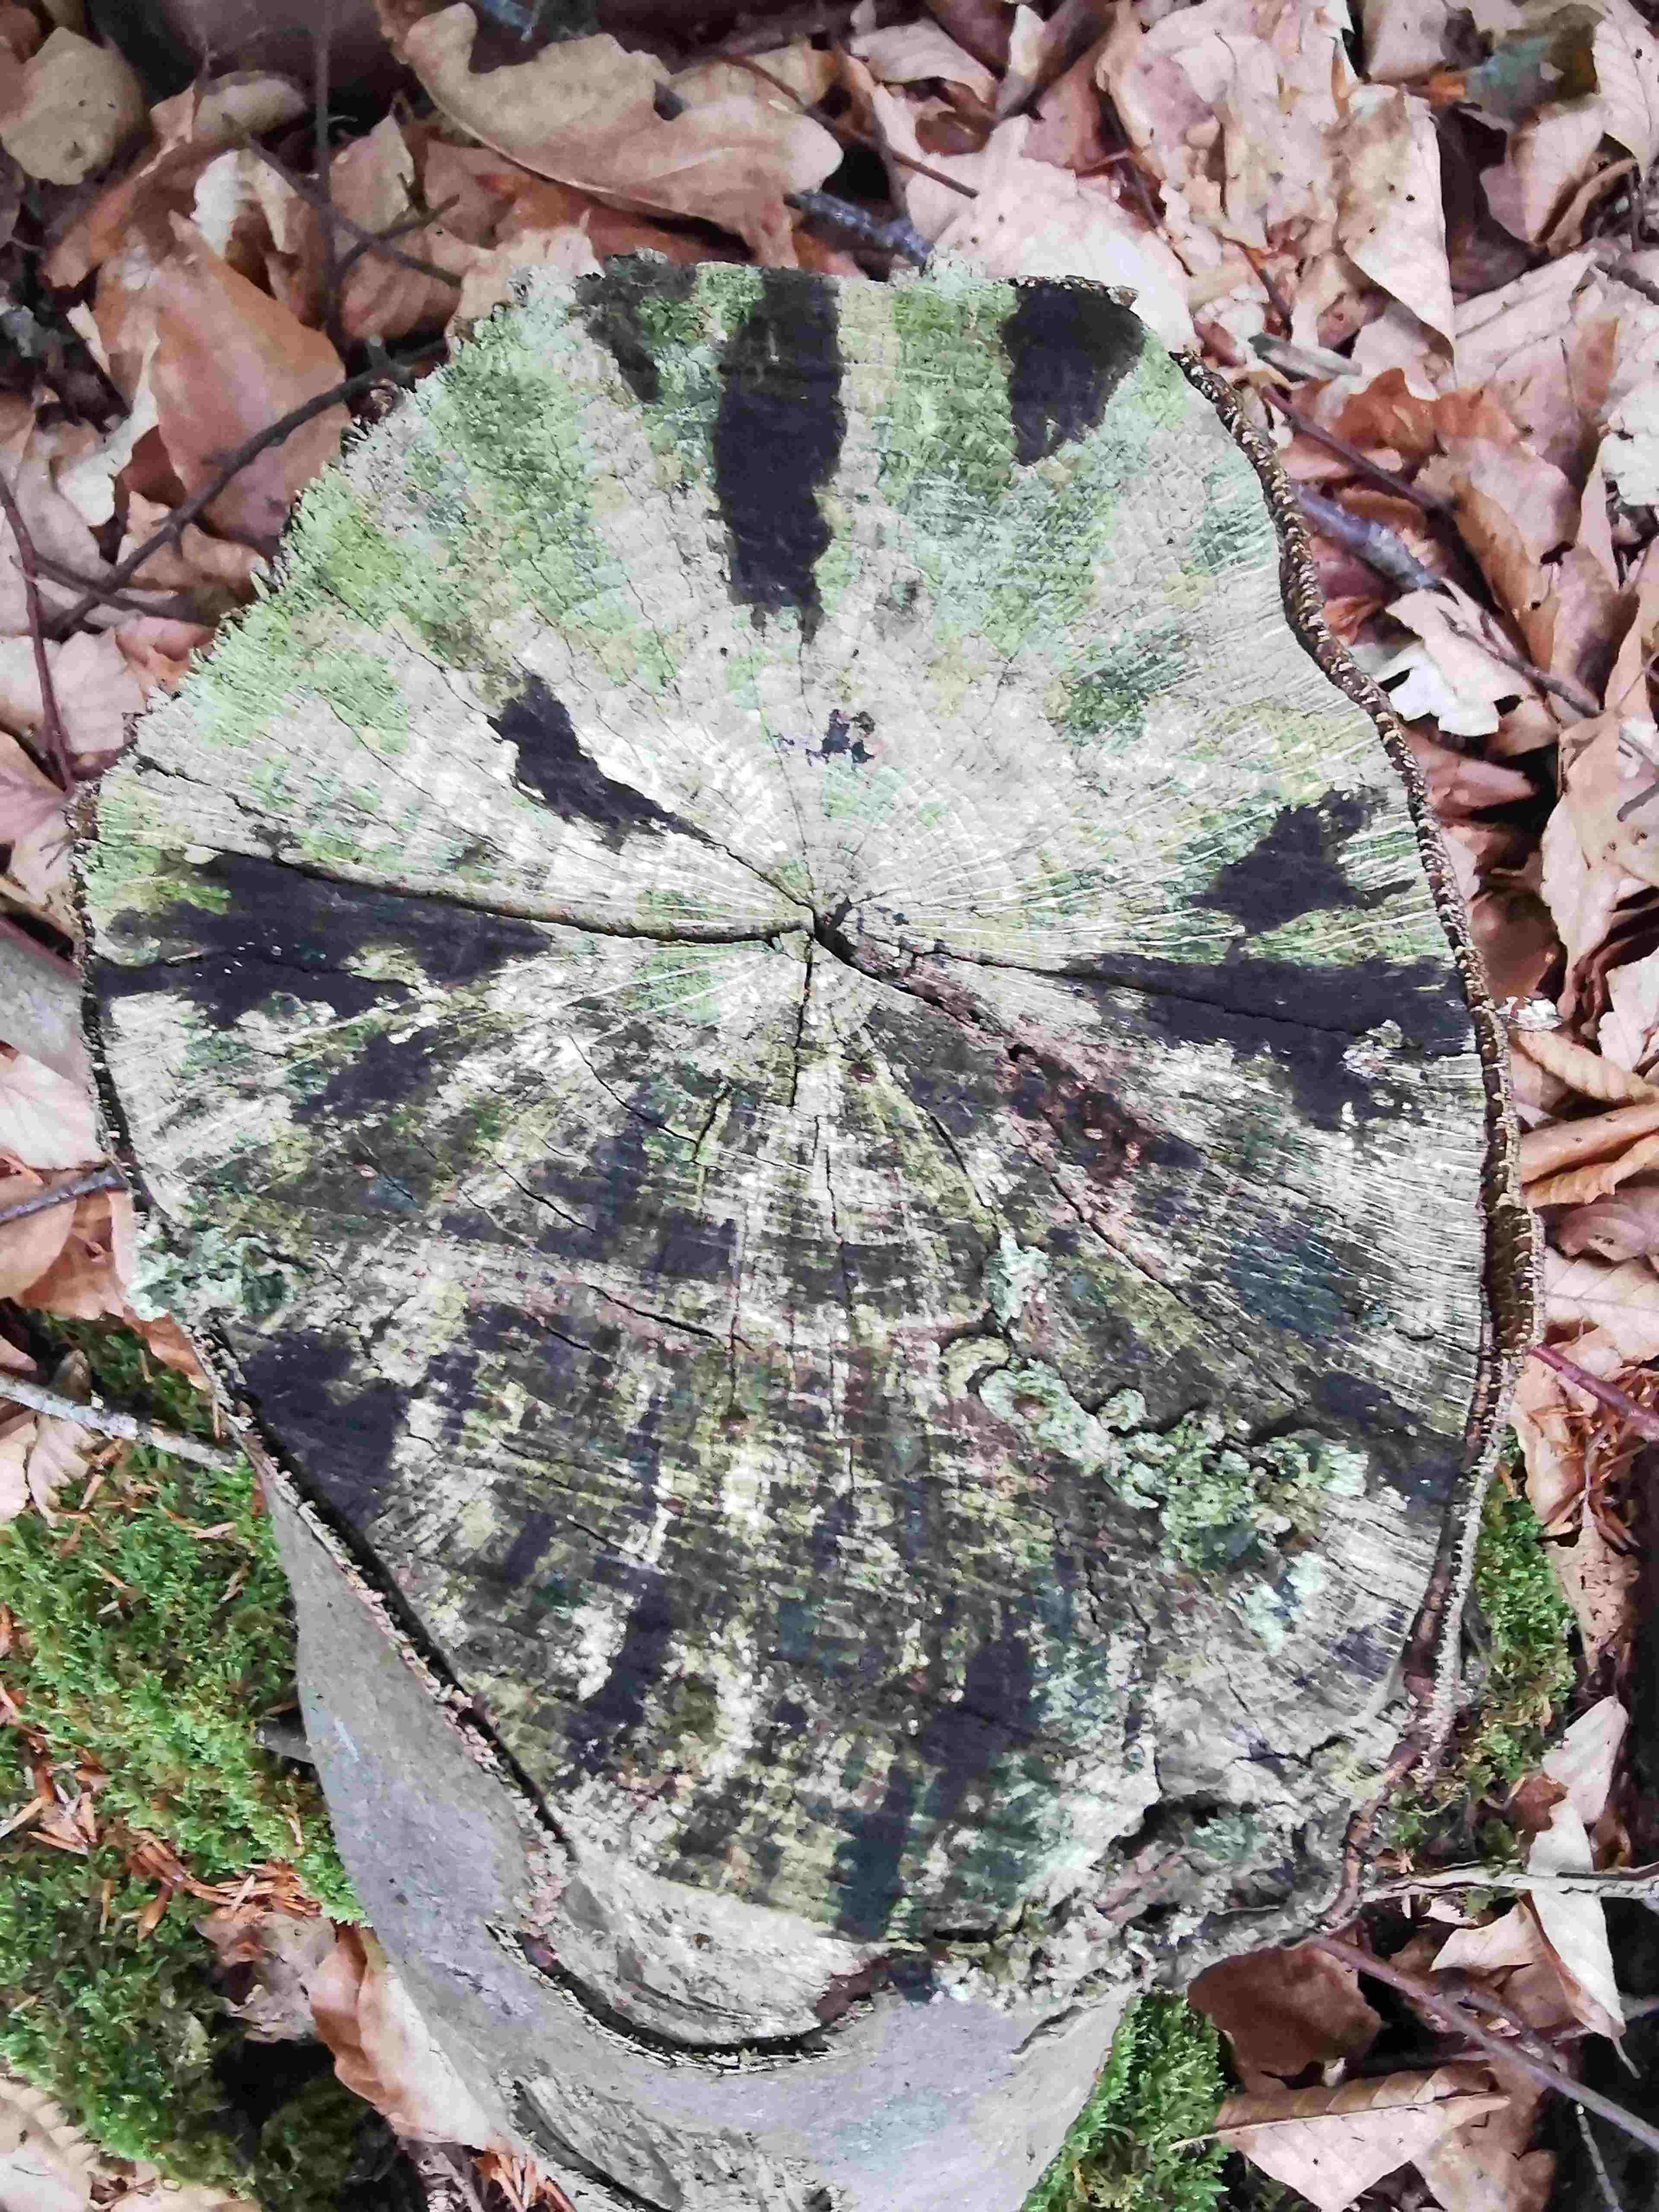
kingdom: Fungi
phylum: Ascomycota
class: Leotiomycetes
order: Helotiales
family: Helotiaceae
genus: Bispora
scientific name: Bispora pallescens
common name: måtte-snitskive
